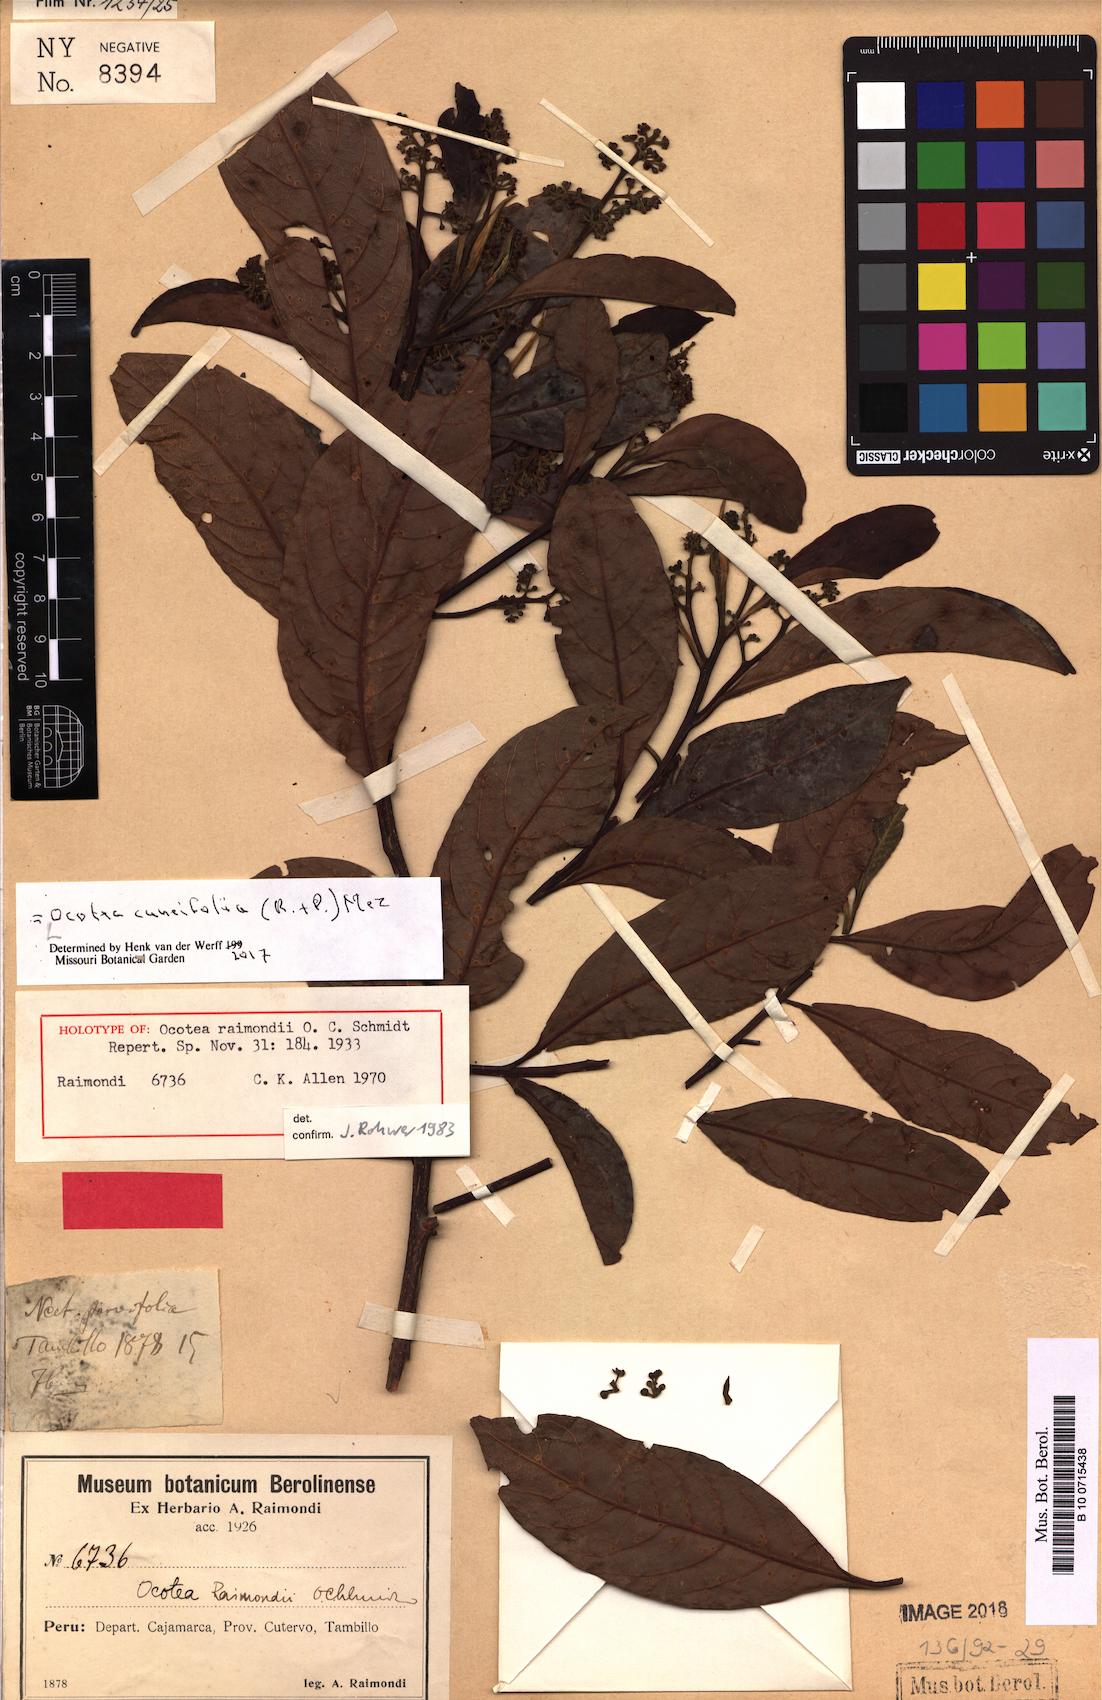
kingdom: Plantae
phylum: Tracheophyta
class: Magnoliopsida
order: Laurales
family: Lauraceae
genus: Ocotea
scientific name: Ocotea cuneifolia
